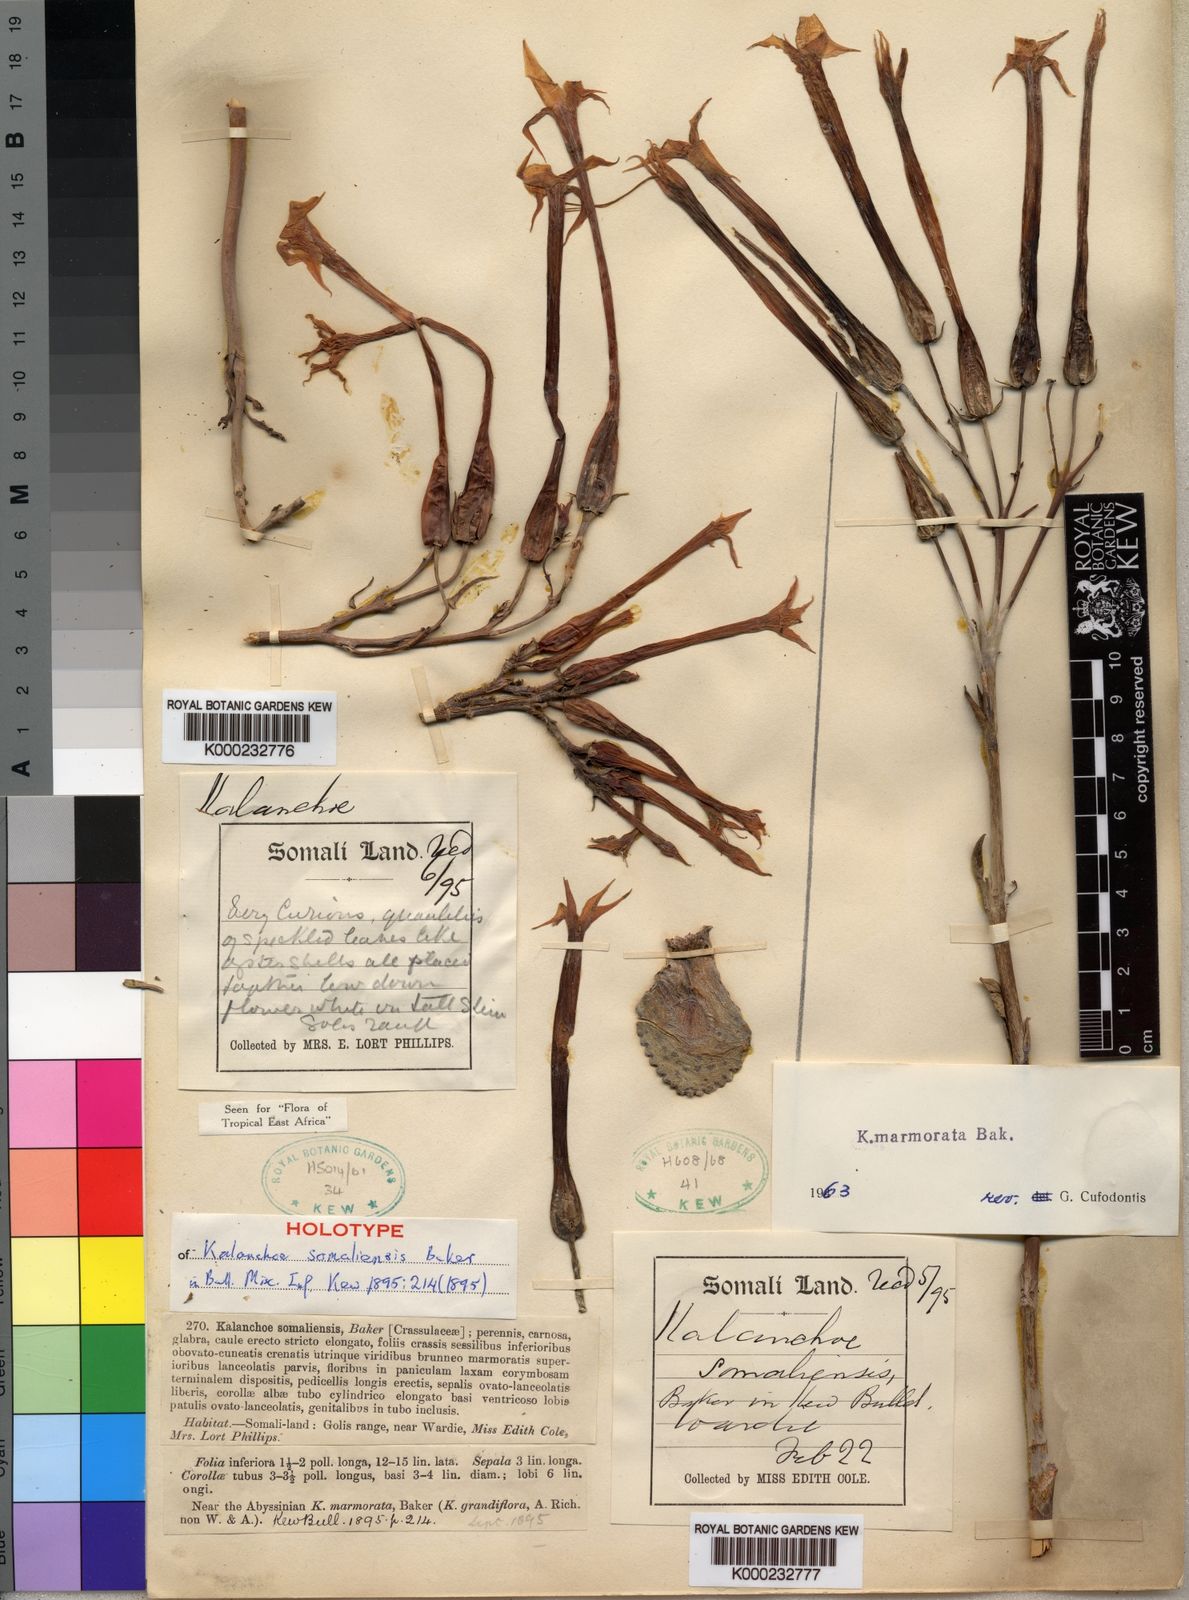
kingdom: Plantae
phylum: Tracheophyta
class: Magnoliopsida
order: Saxifragales
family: Crassulaceae
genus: Kalanchoe
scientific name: Kalanchoe marmorata
